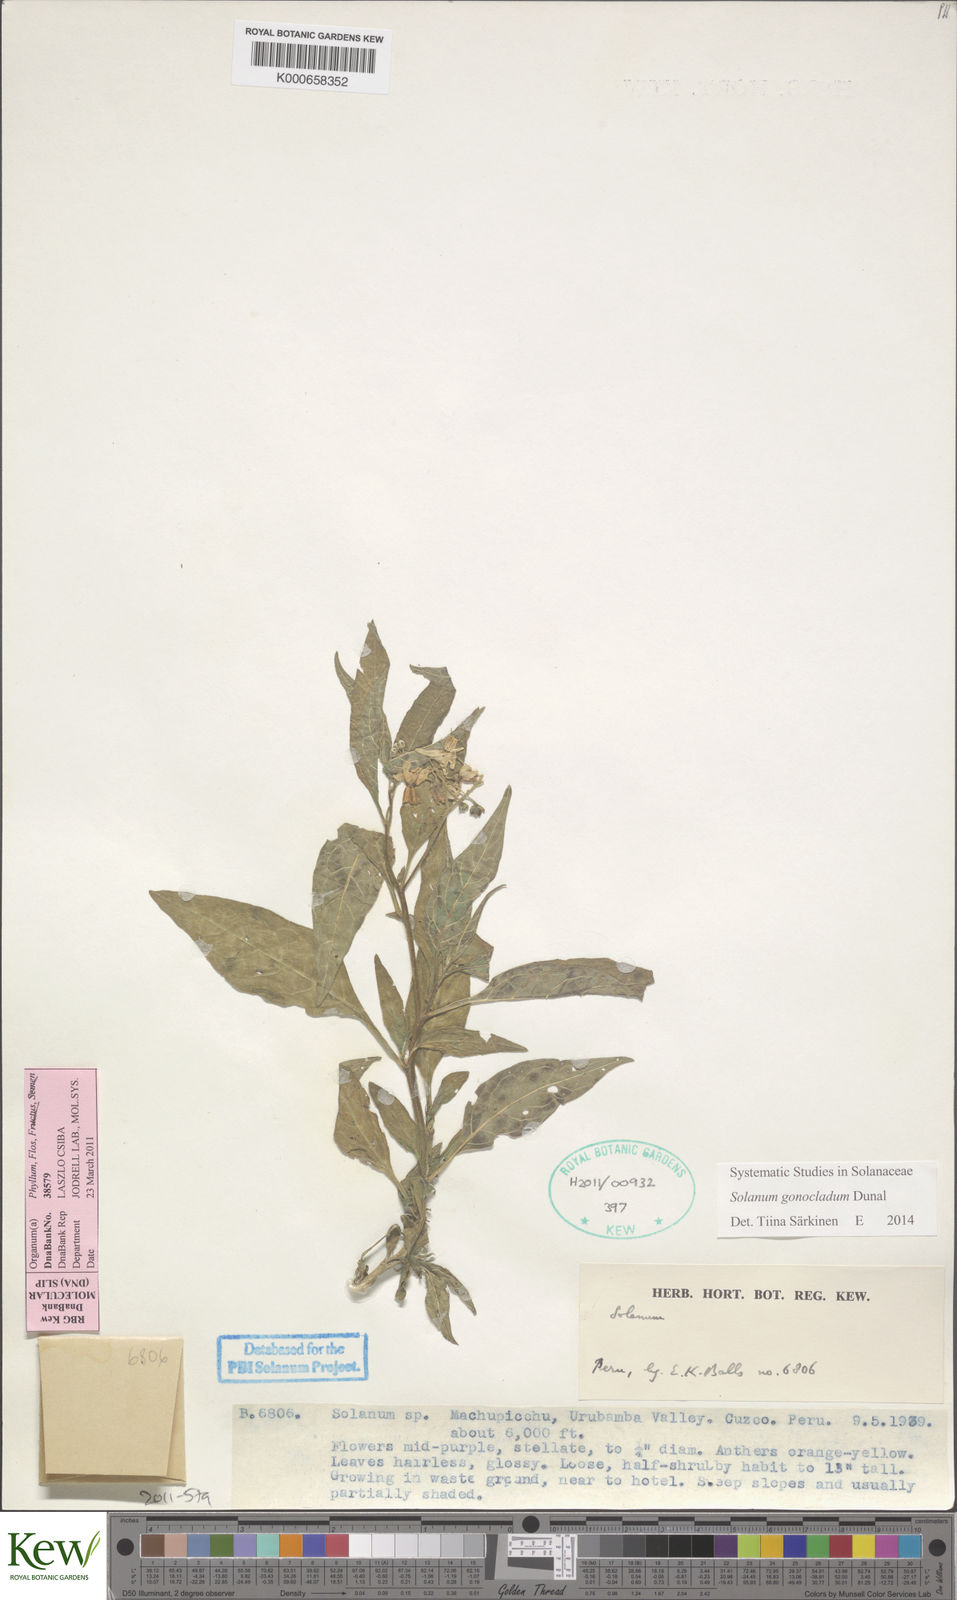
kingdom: Plantae
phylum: Tracheophyta
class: Magnoliopsida
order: Solanales
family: Solanaceae
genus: Solanum
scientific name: Solanum gonocladum
